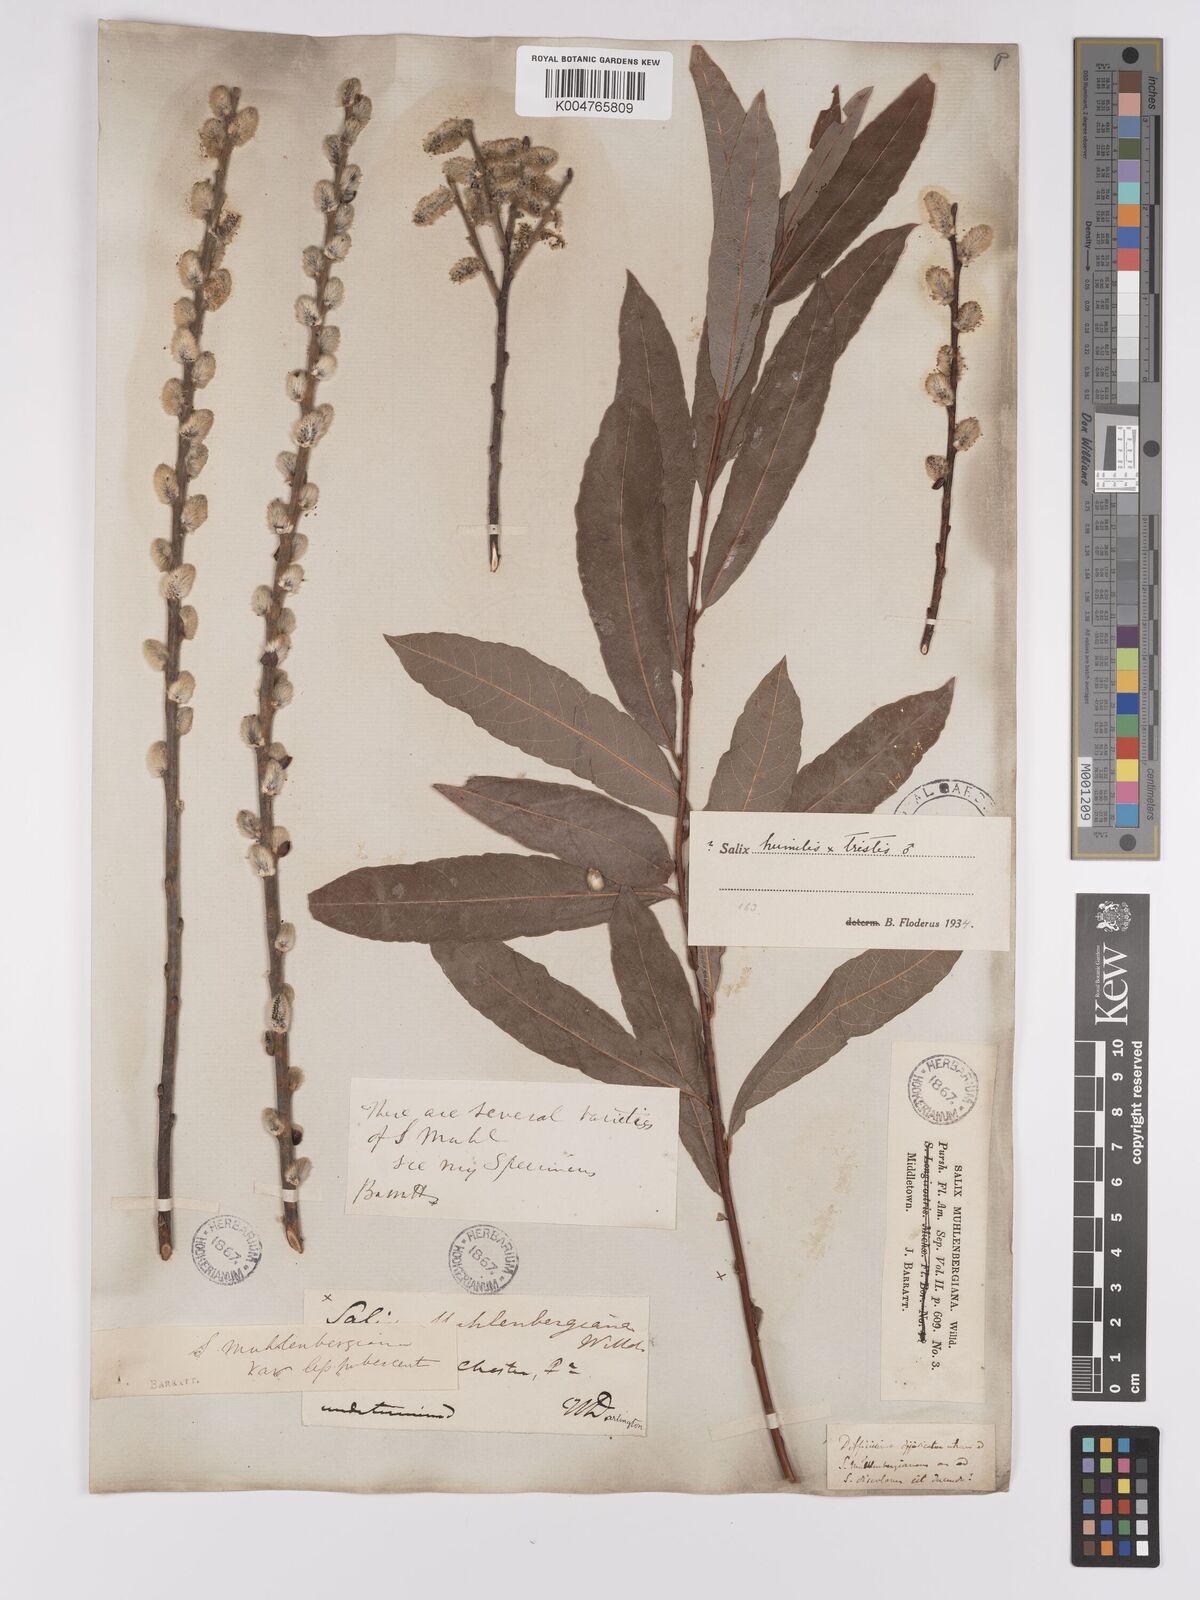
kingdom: Plantae
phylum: Tracheophyta
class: Magnoliopsida
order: Malpighiales
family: Salicaceae
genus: Salix
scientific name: Salix
